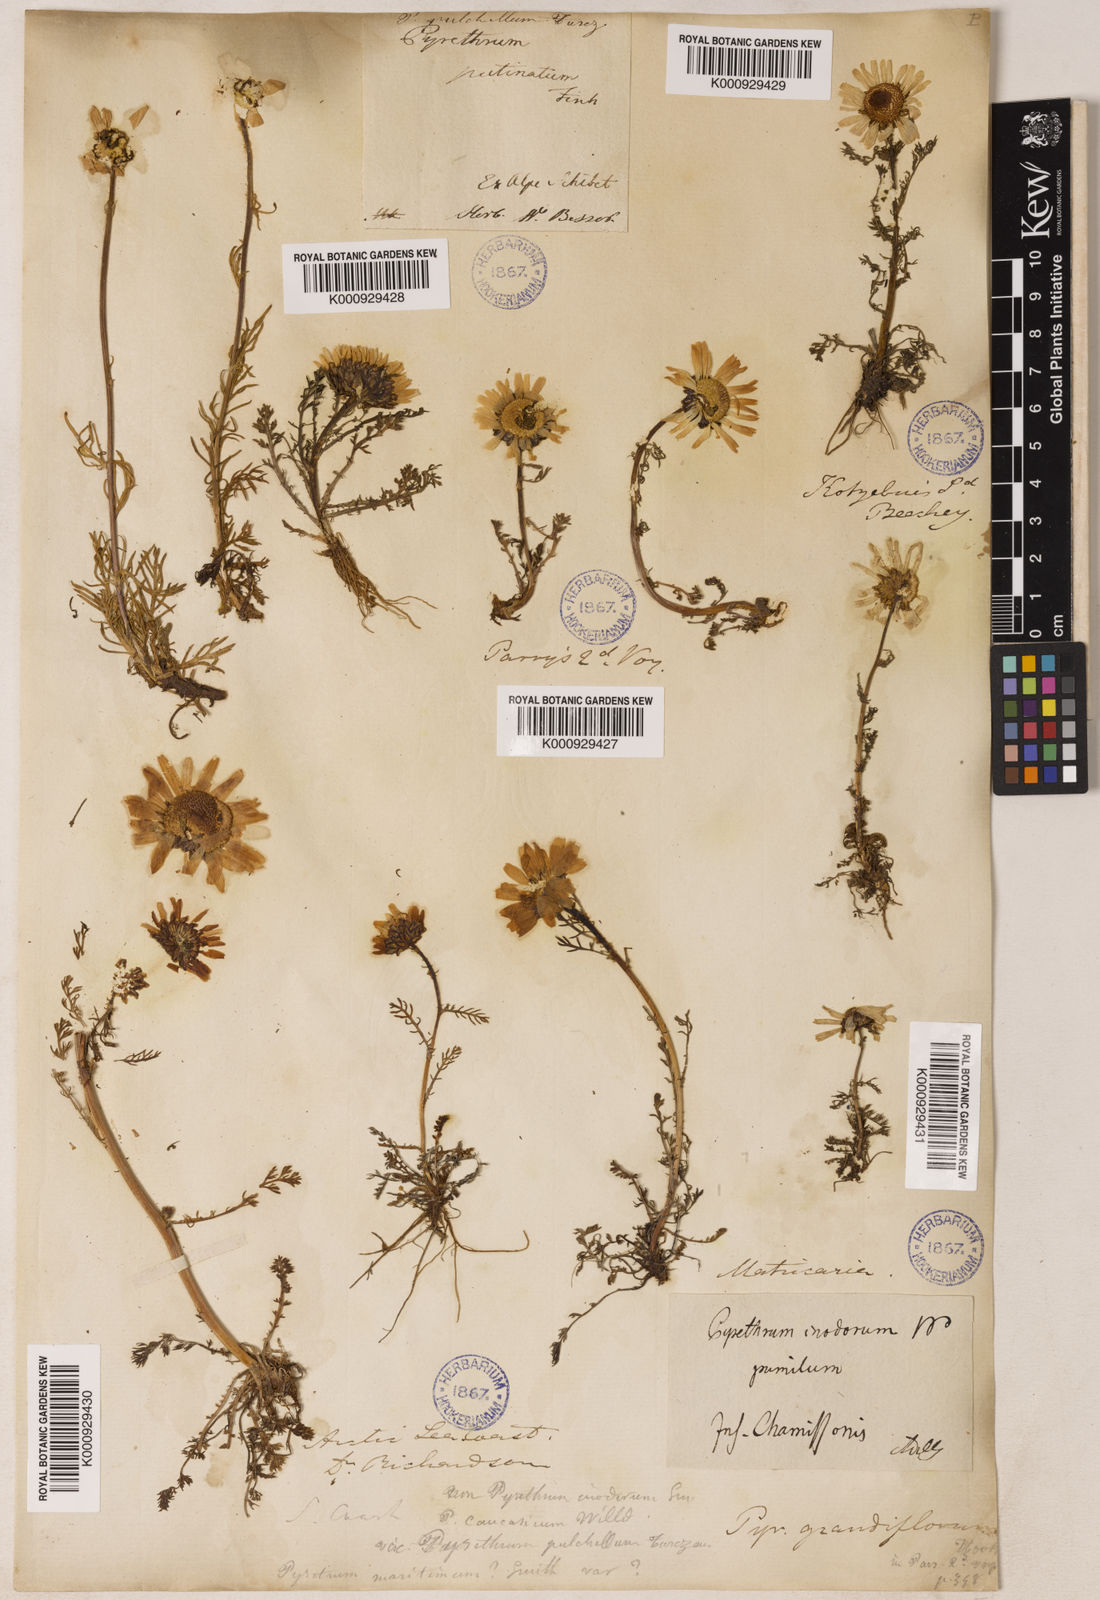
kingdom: Plantae
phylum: Tracheophyta
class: Magnoliopsida
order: Asterales
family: Asteraceae
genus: Tripleurospermum
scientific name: Tripleurospermum
